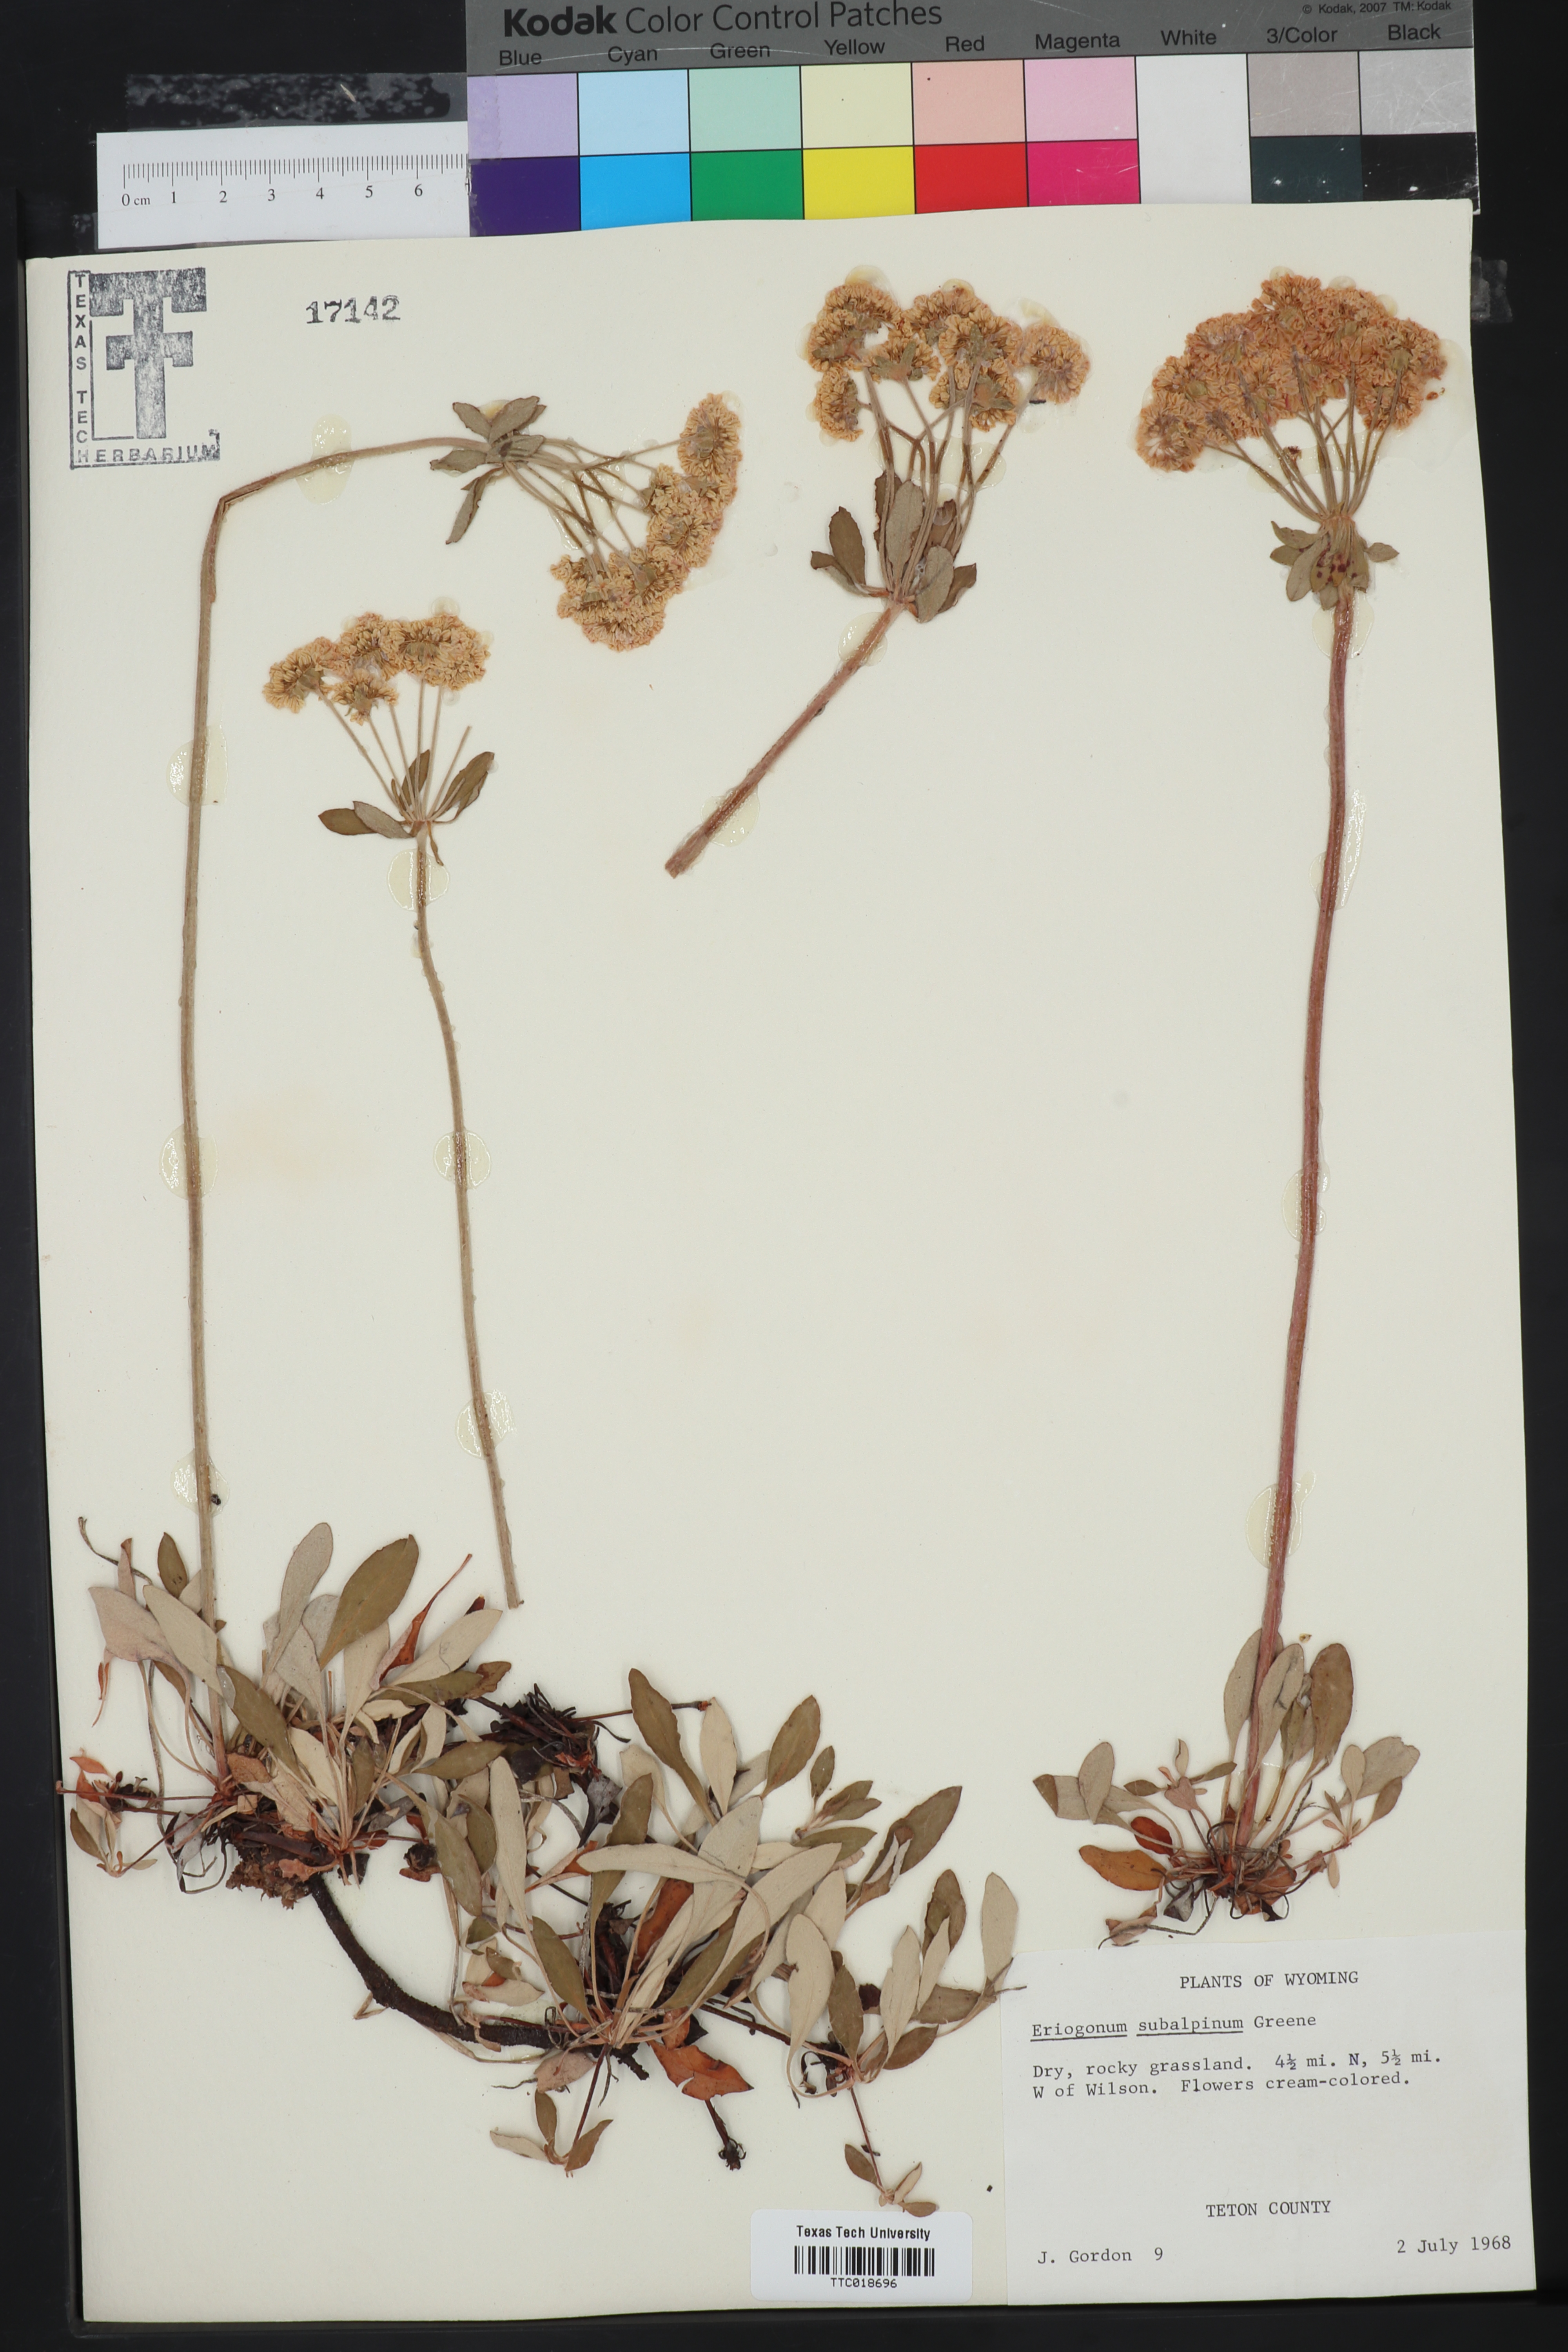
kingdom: Plantae
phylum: Tracheophyta
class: Magnoliopsida
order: Caryophyllales
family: Polygonaceae
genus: Eriogonum
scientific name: Eriogonum umbellatum
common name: Sulfur-buckwheat
